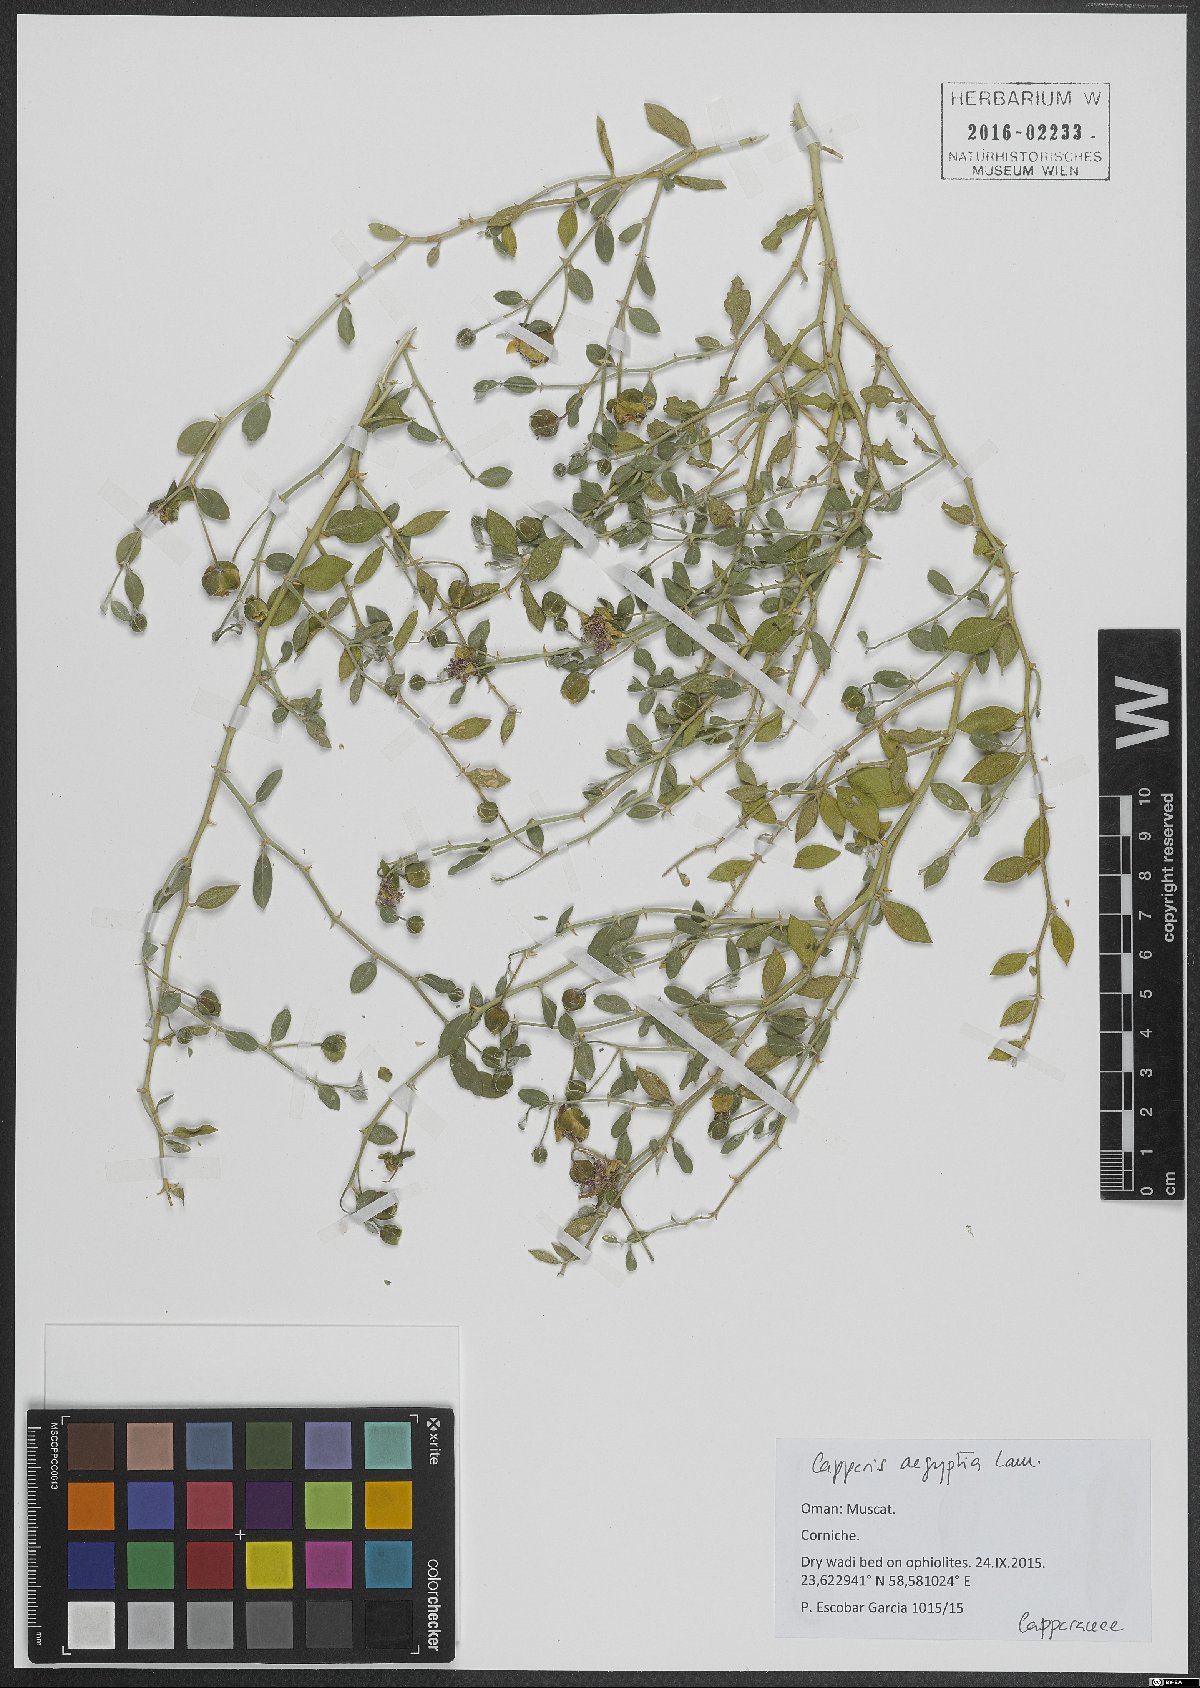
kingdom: Plantae
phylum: Tracheophyta
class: Magnoliopsida
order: Brassicales
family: Capparaceae
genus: Capparis
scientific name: Capparis spinosa
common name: Caper
